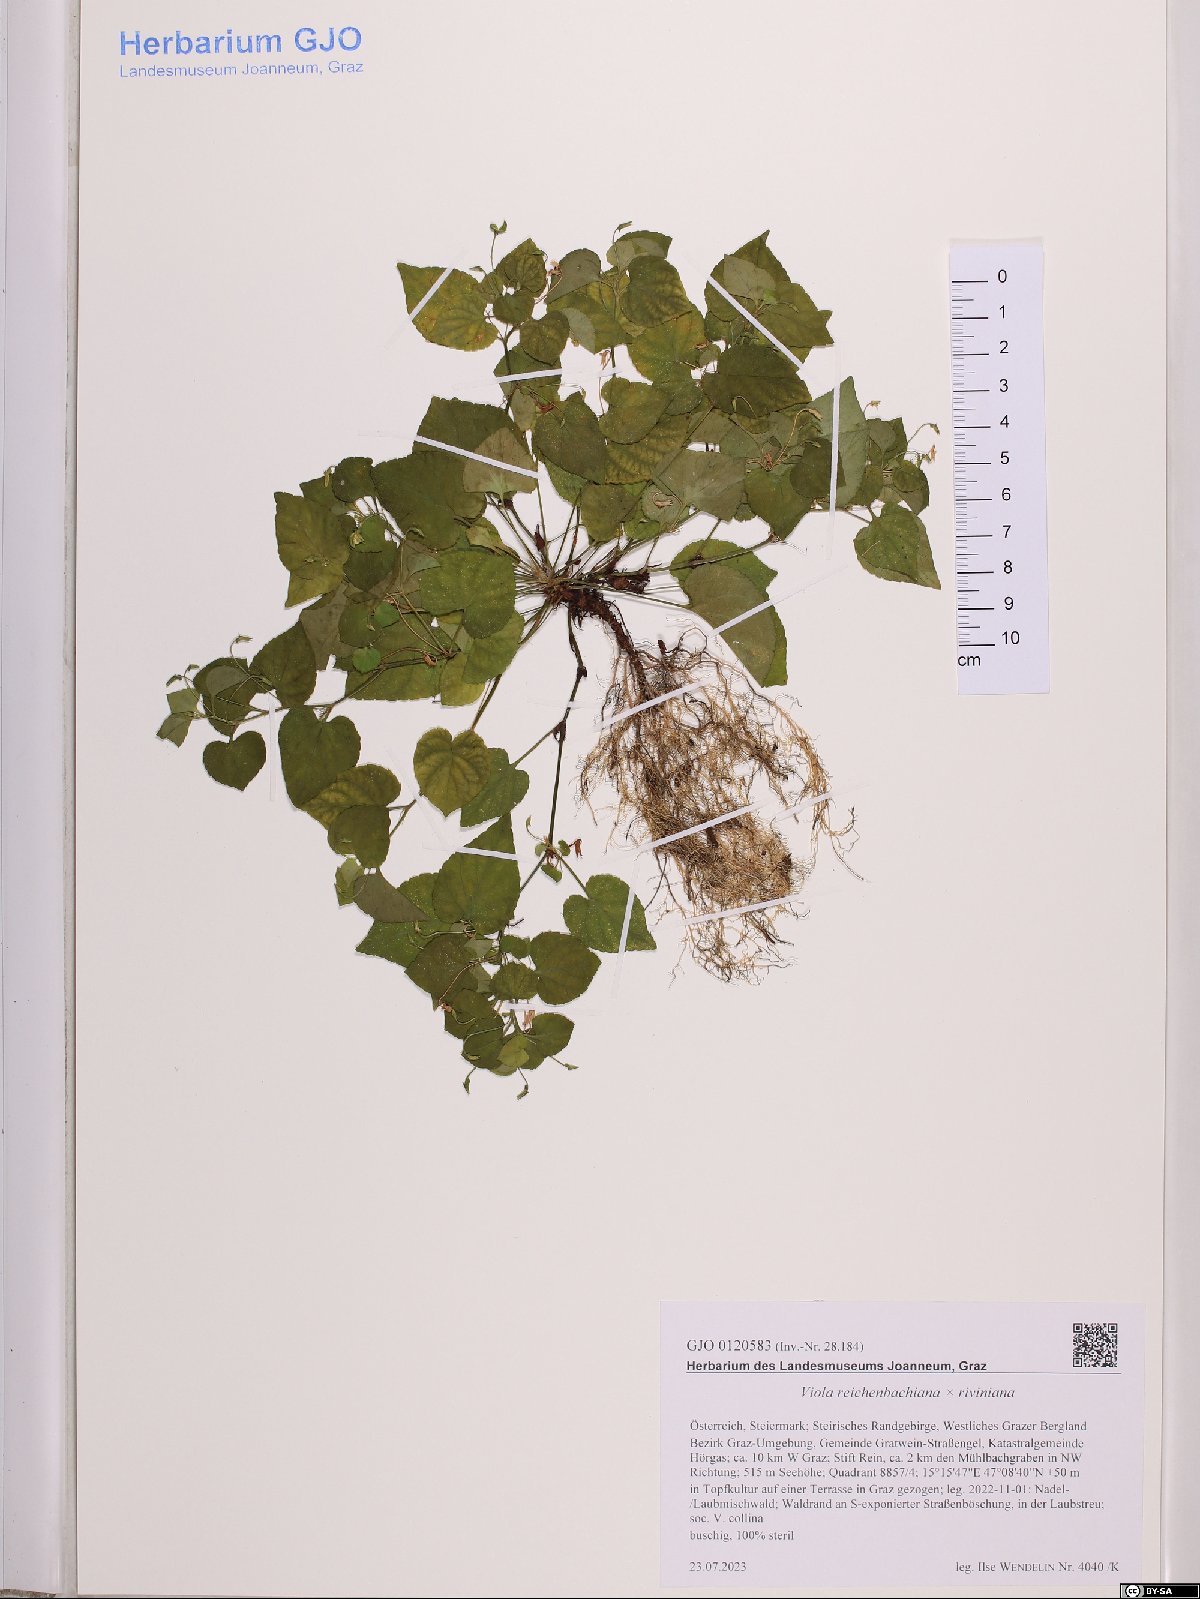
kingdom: Plantae
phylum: Tracheophyta
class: Magnoliopsida
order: Malpighiales
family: Violaceae
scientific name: Violaceae
